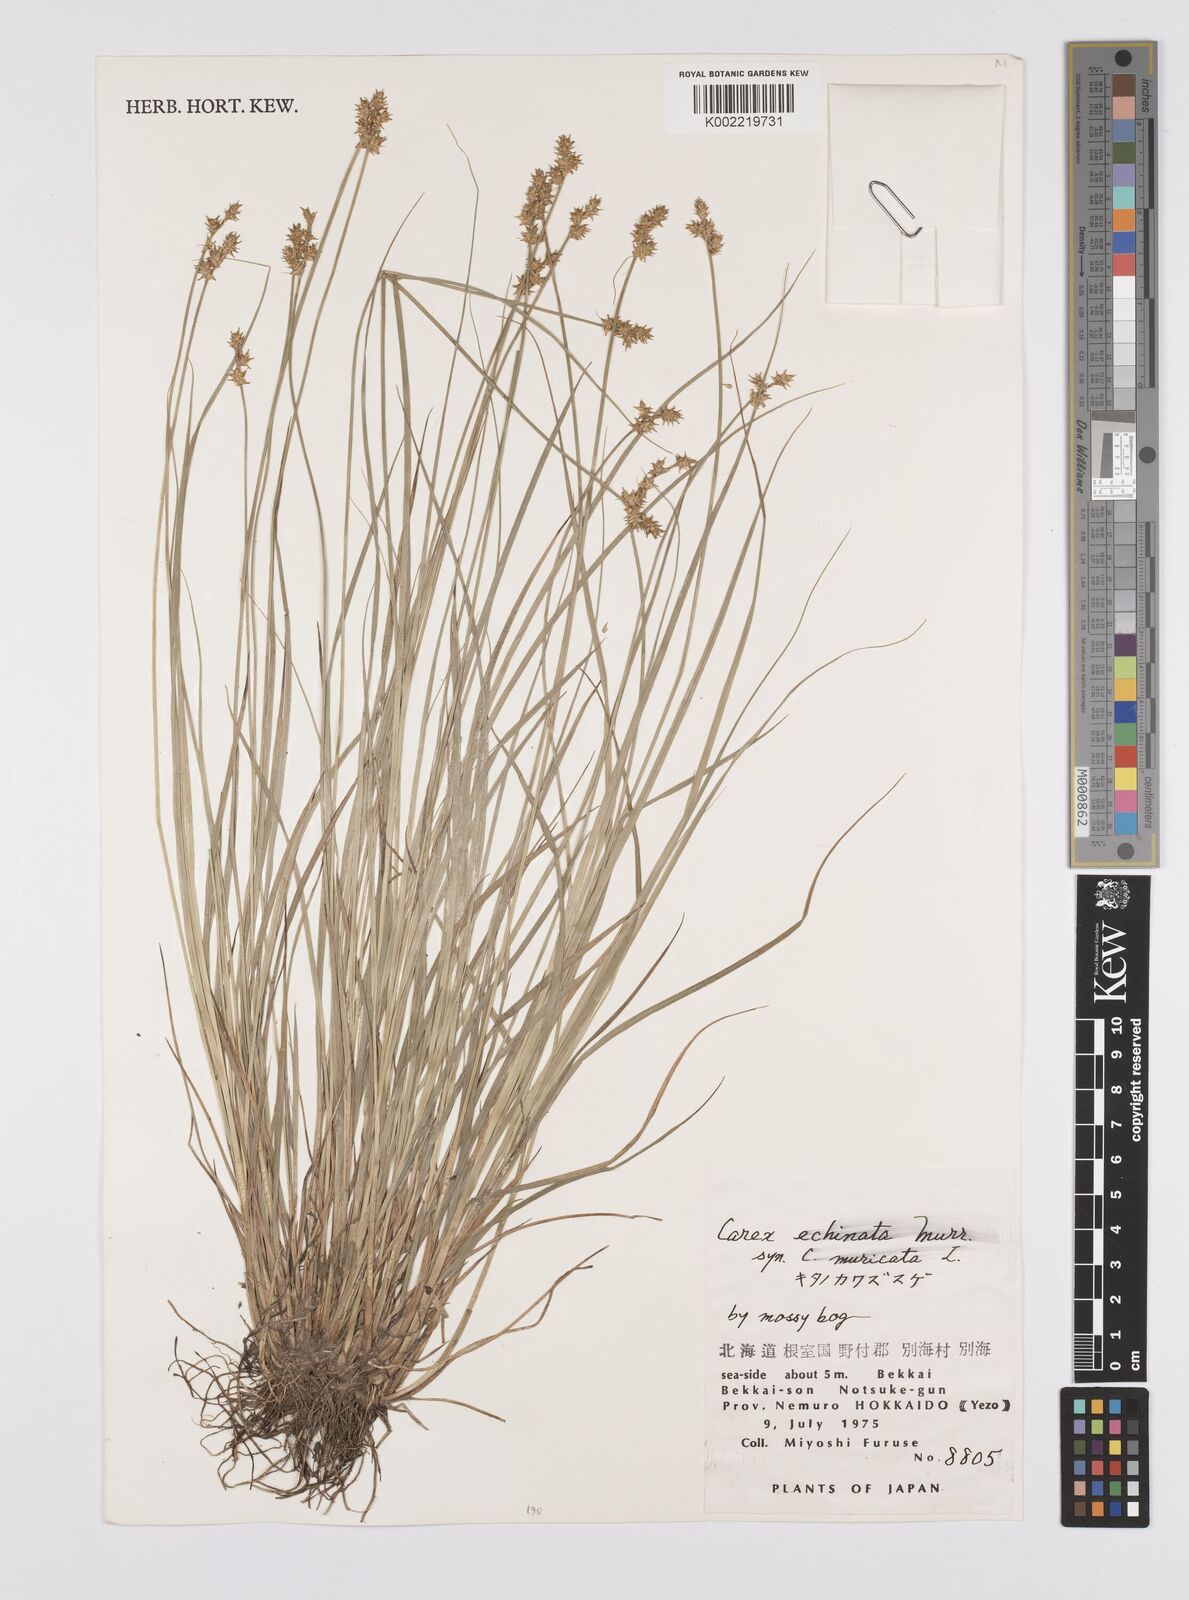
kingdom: Plantae
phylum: Tracheophyta
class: Liliopsida
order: Poales
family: Cyperaceae
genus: Carex
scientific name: Carex echinata
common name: Star sedge
